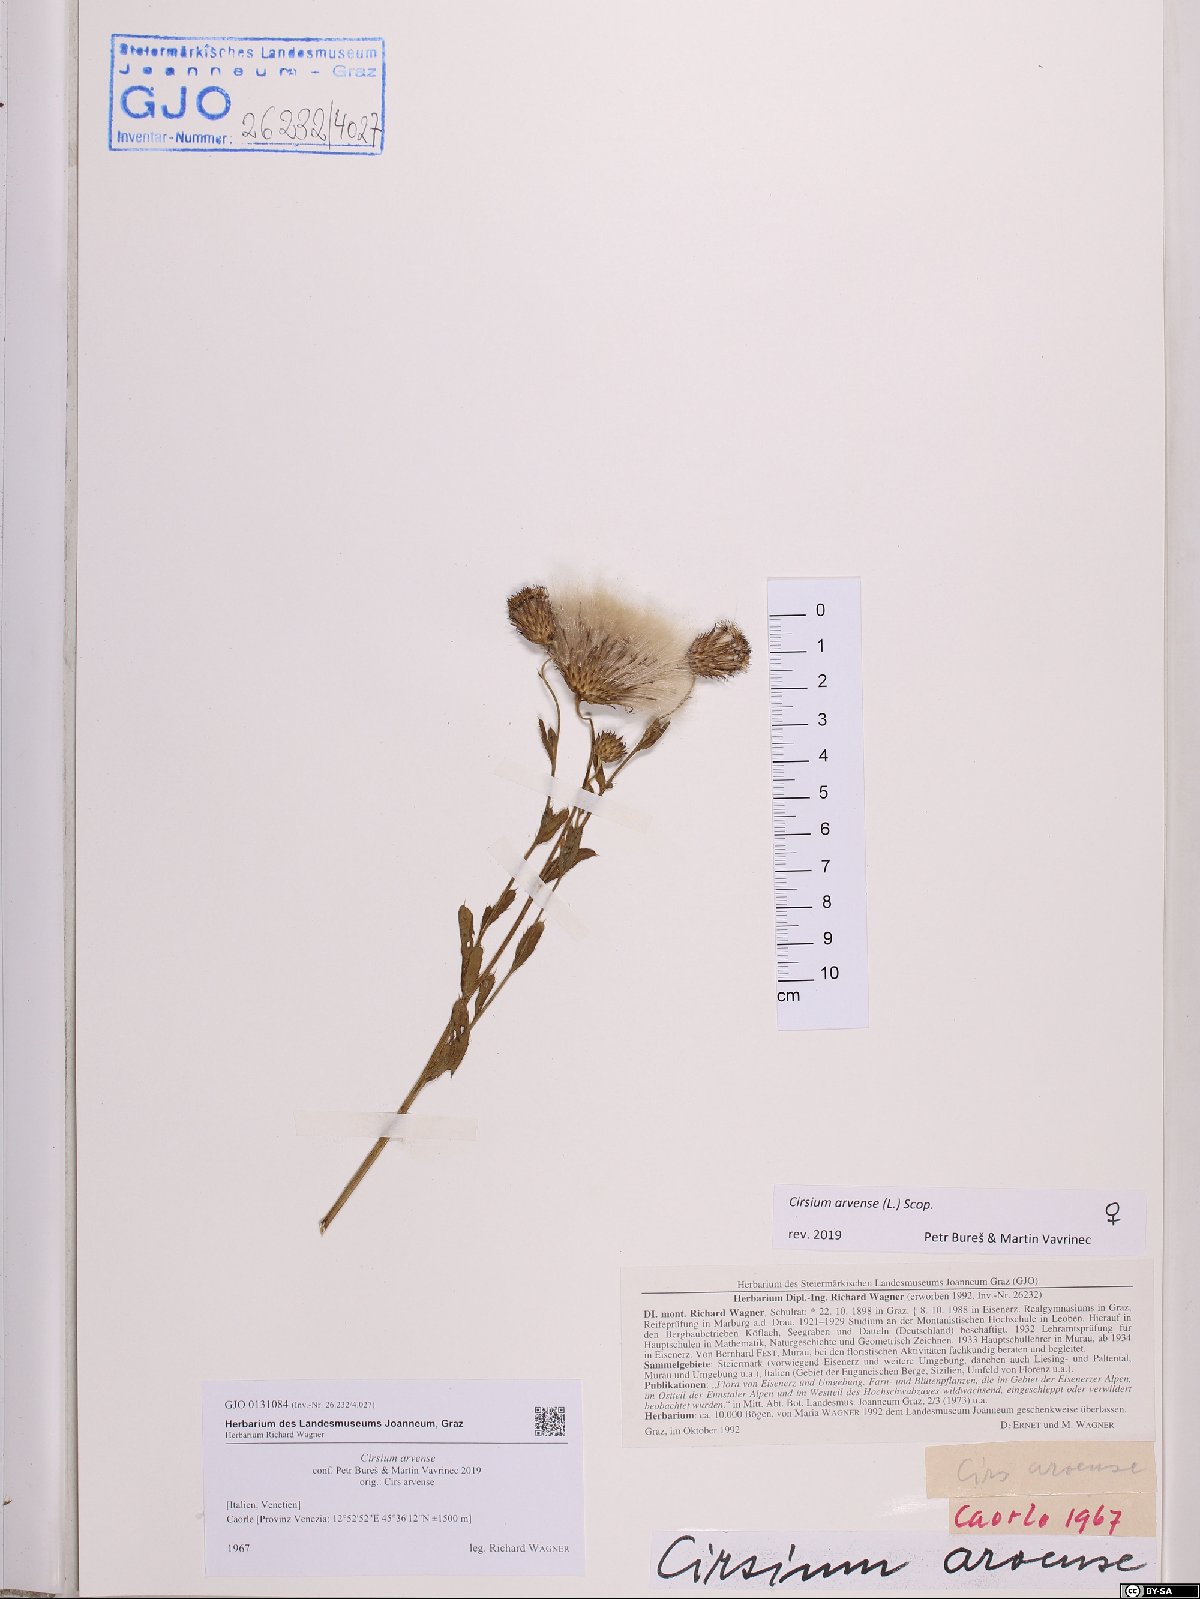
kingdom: Plantae
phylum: Tracheophyta
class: Magnoliopsida
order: Asterales
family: Asteraceae
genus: Cirsium
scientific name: Cirsium arvense
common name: Creeping thistle
